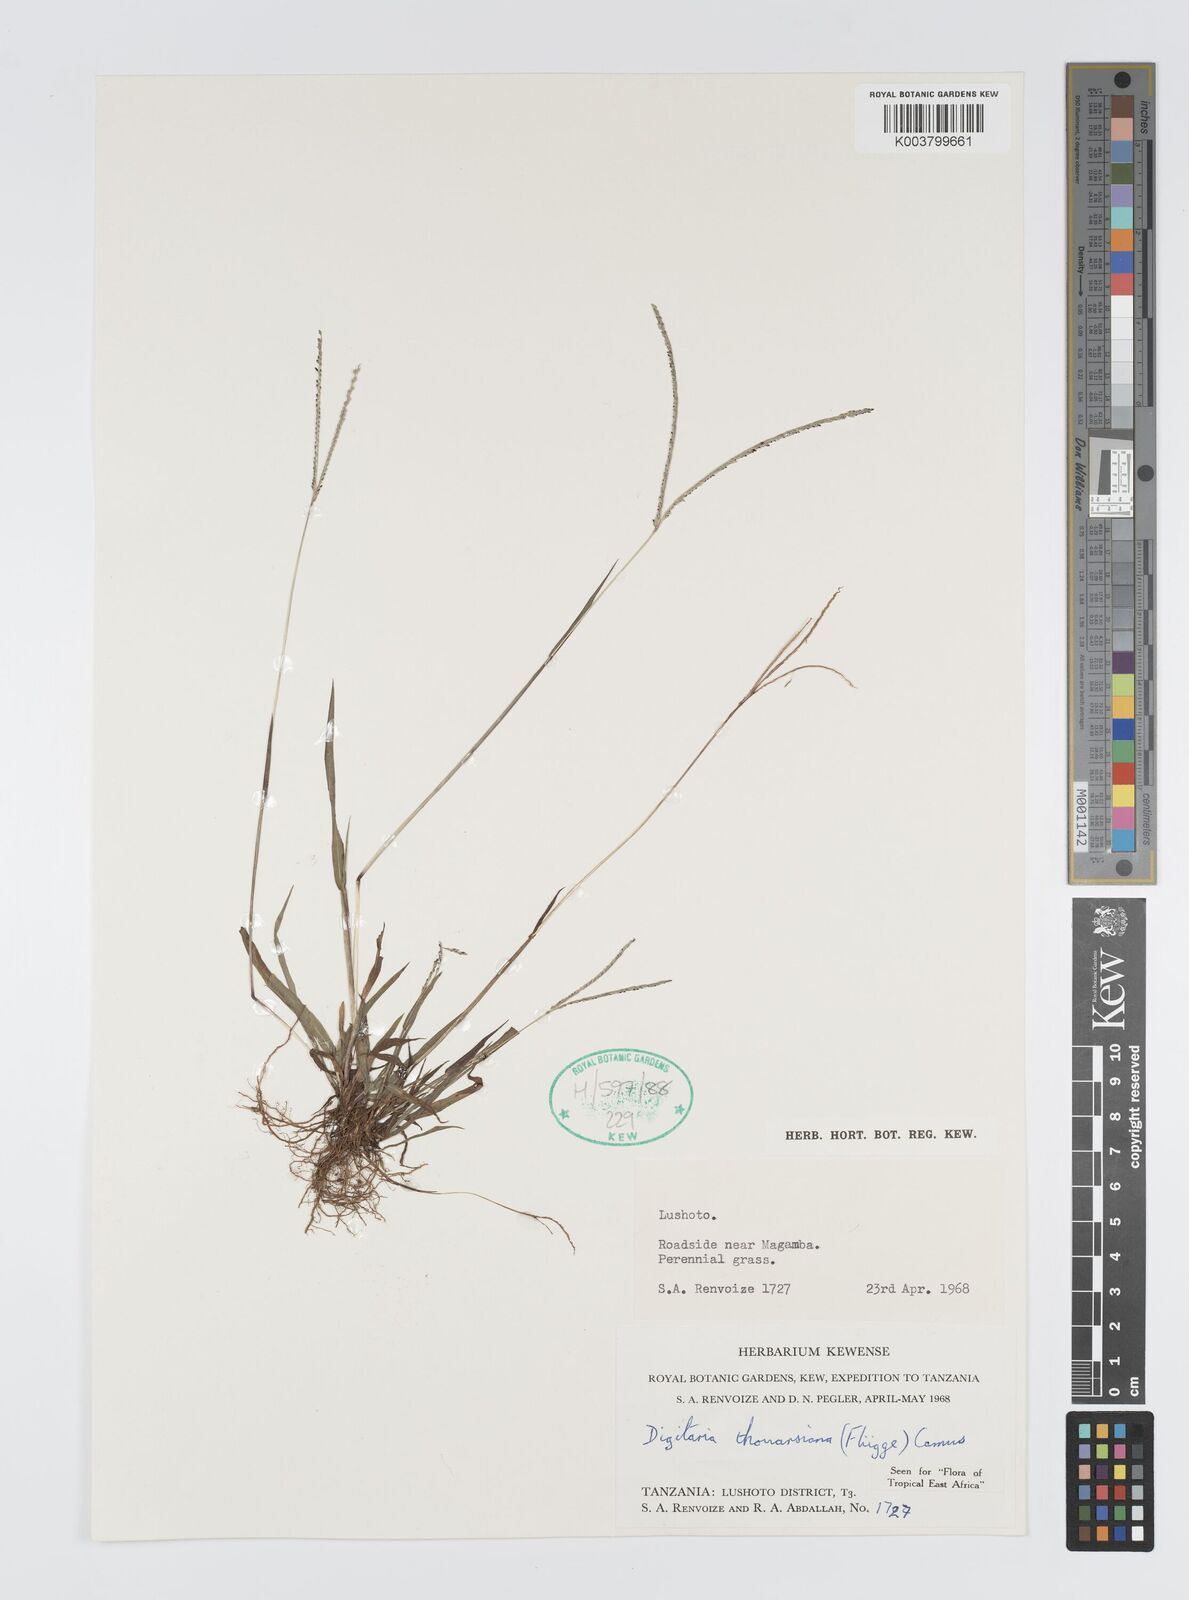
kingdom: Plantae
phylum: Tracheophyta
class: Liliopsida
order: Poales
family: Poaceae
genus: Digitaria
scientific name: Digitaria thouarsiana
